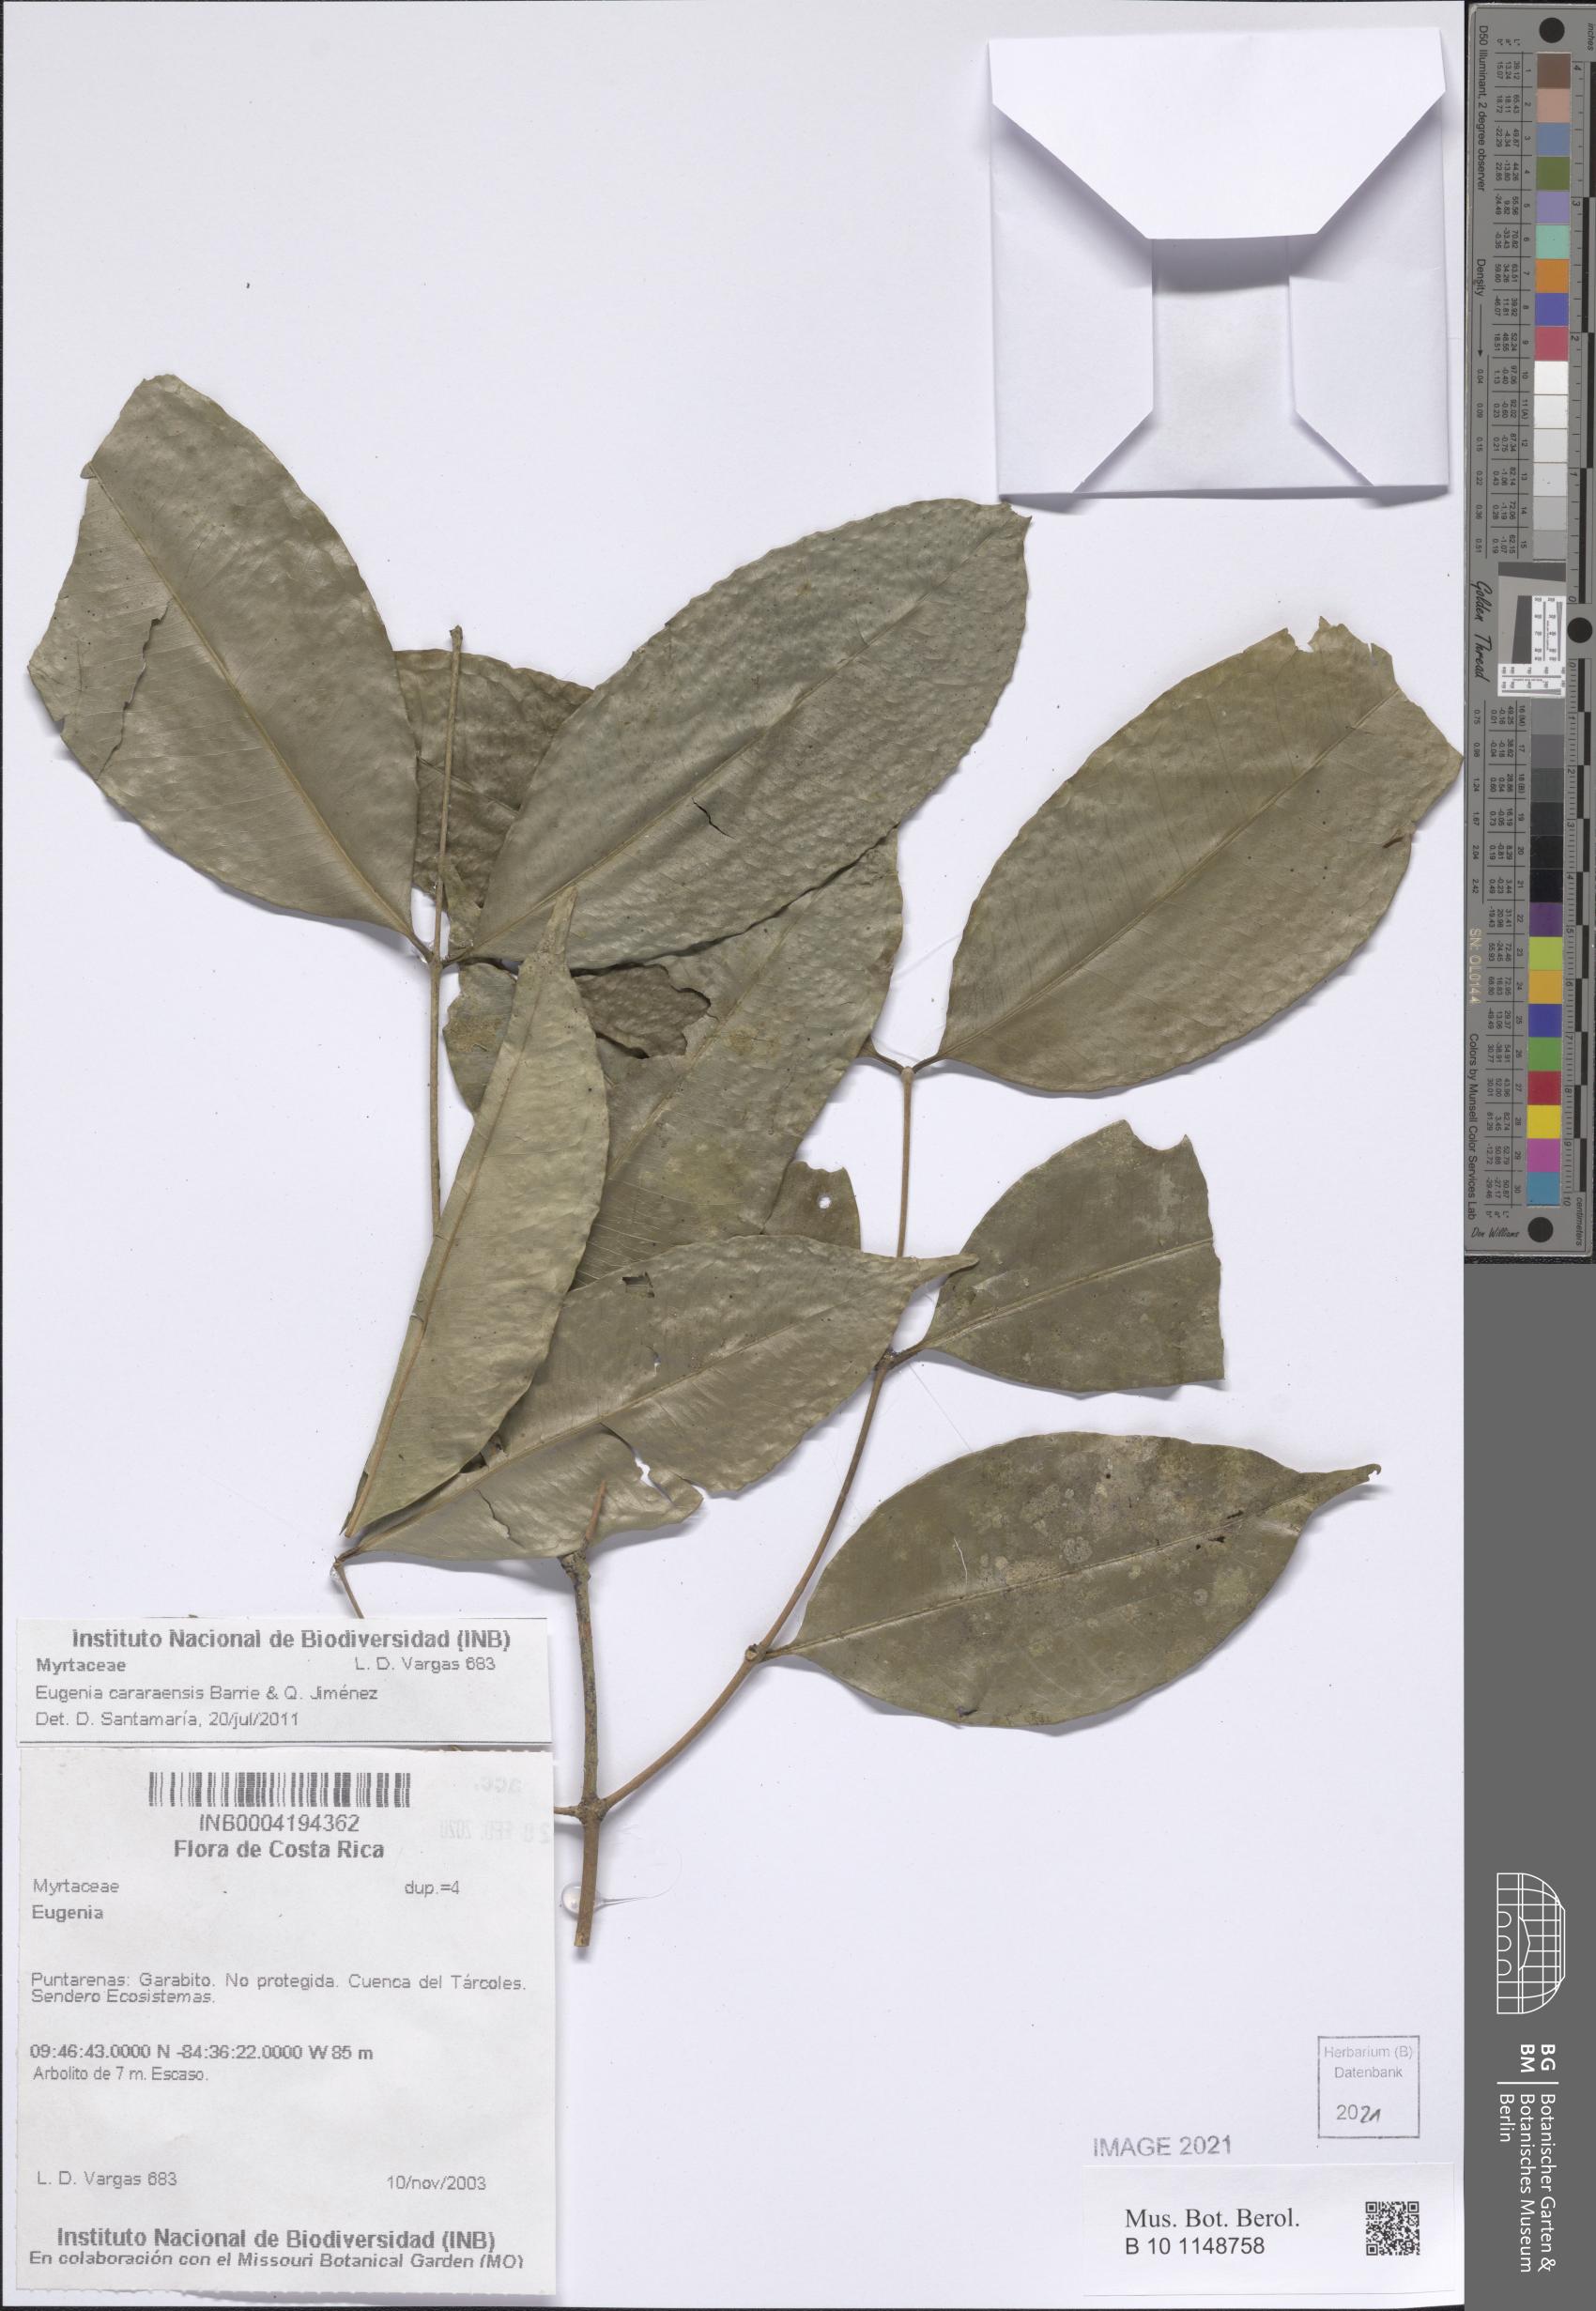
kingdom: Plantae
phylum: Tracheophyta
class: Magnoliopsida
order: Myrtales
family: Myrtaceae
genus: Eugenia
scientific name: Eugenia cararensis
